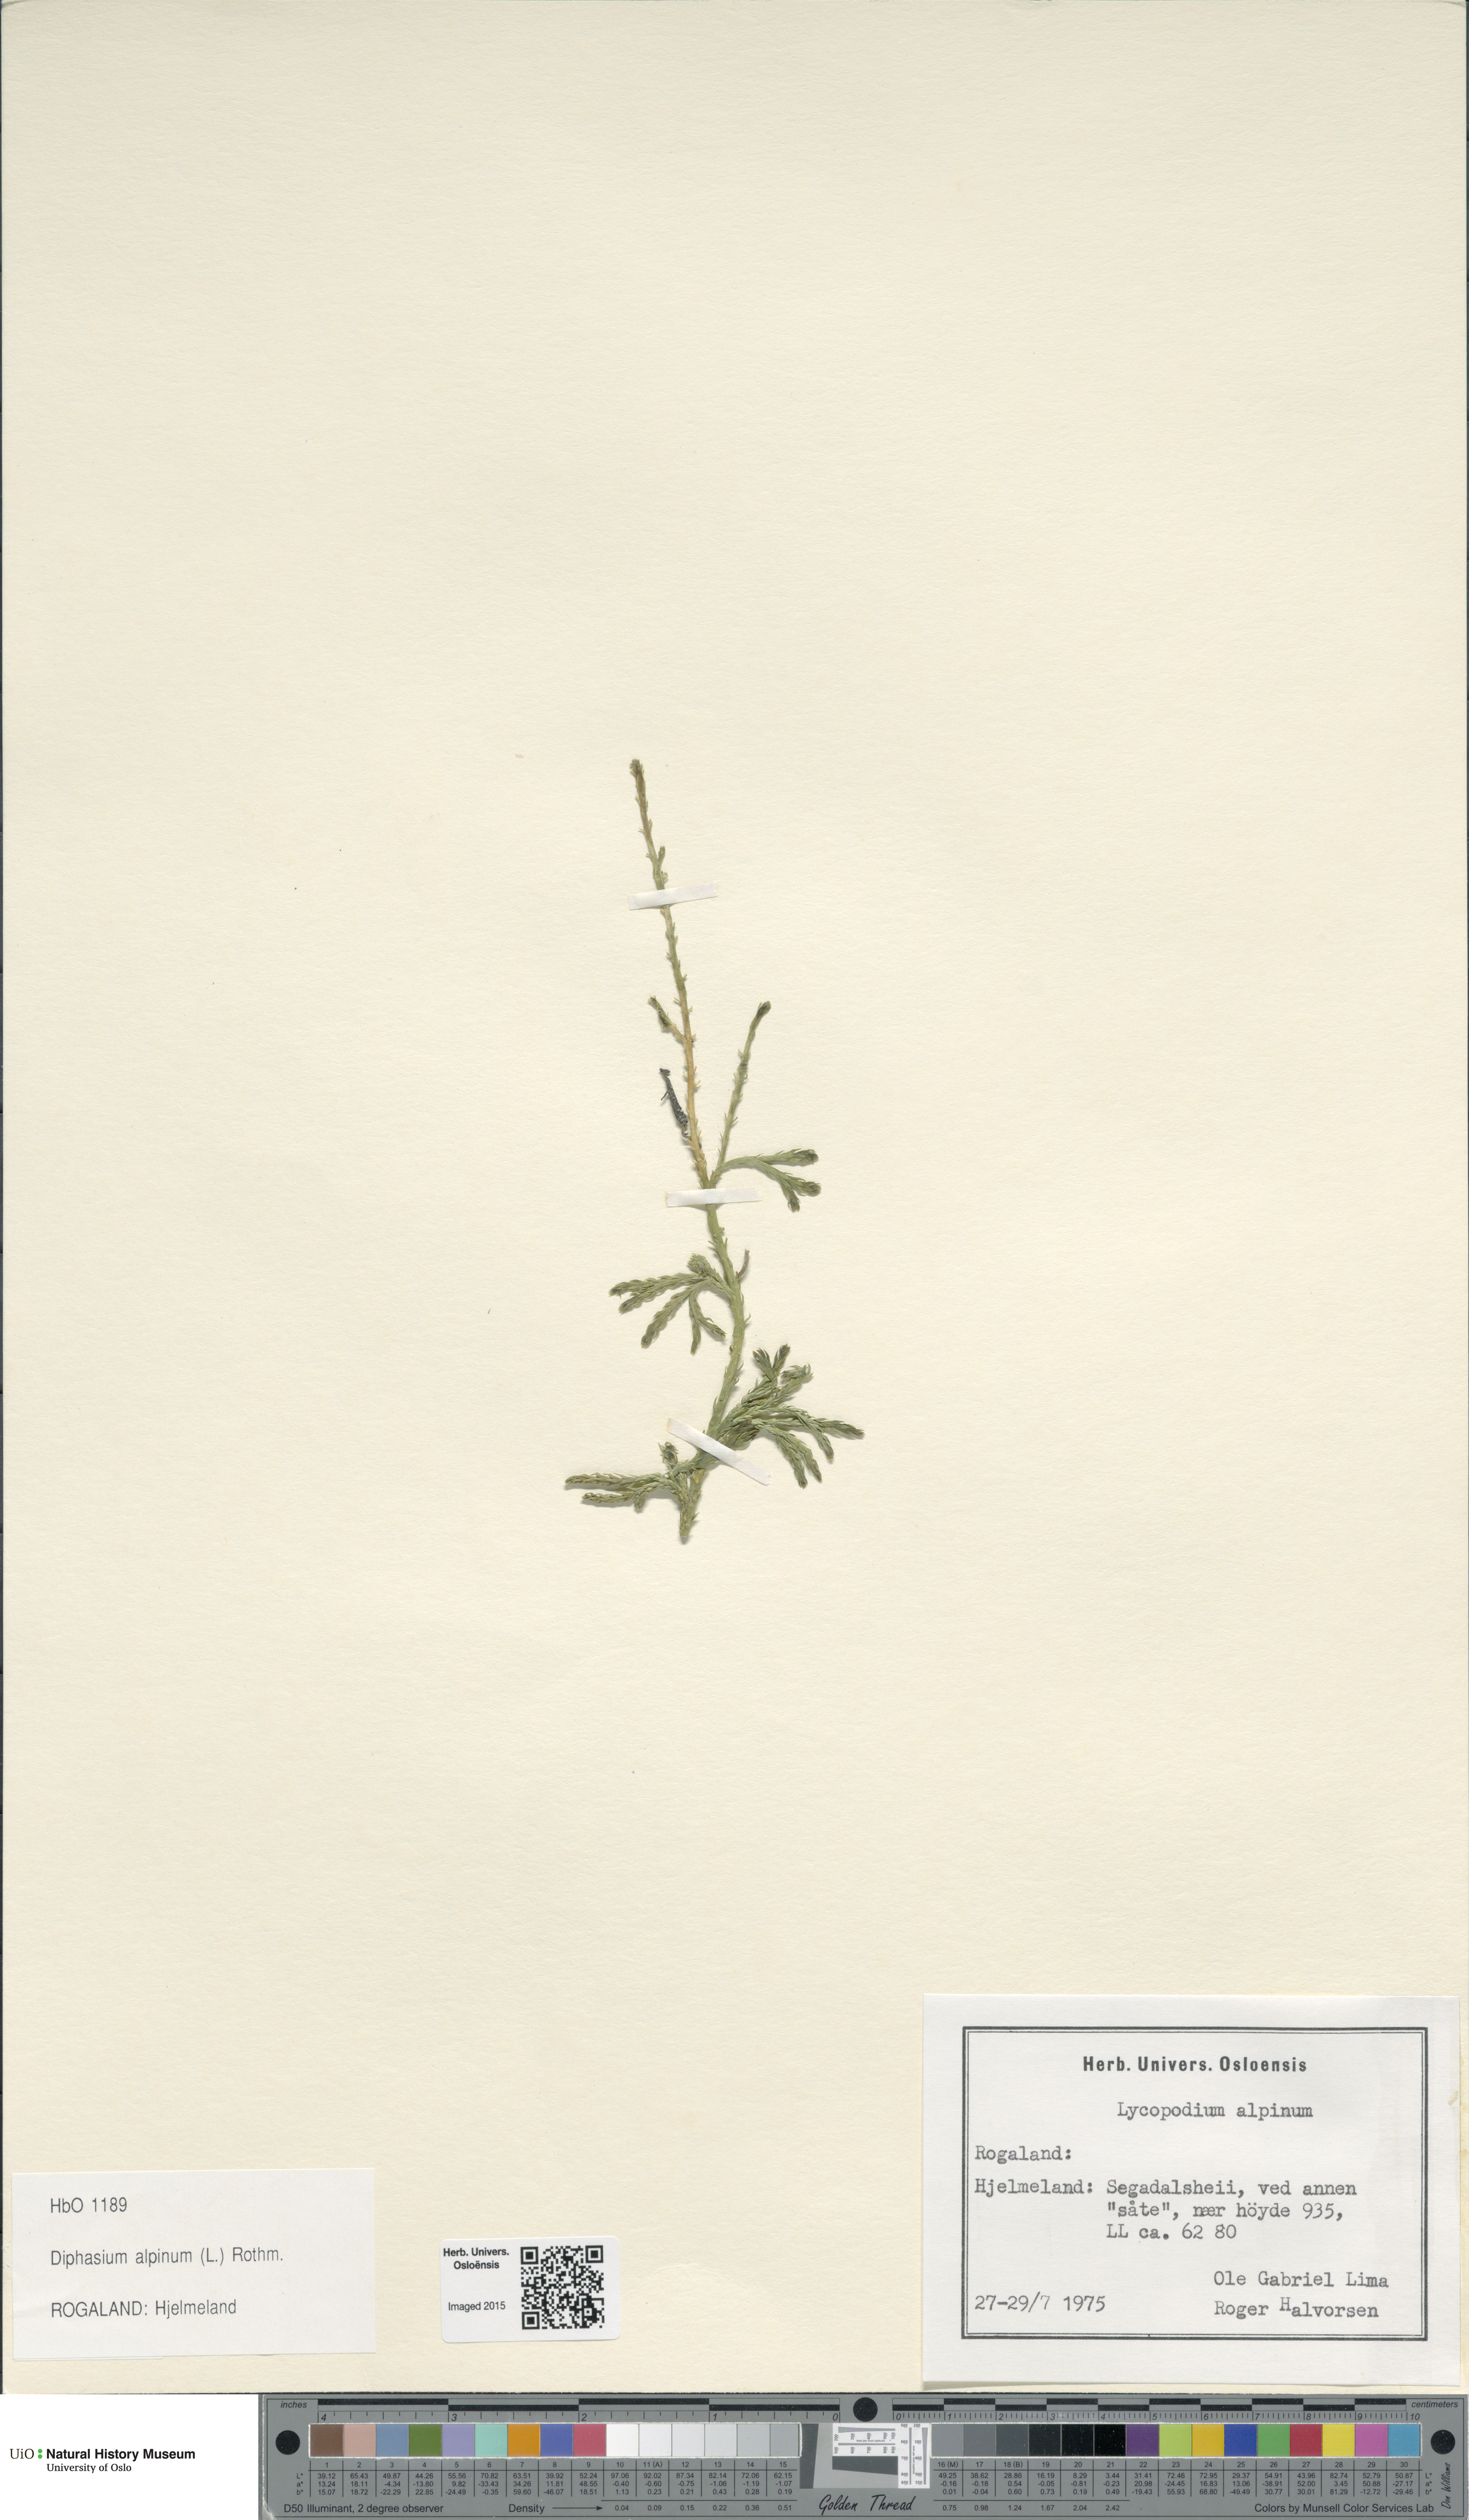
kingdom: Plantae
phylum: Tracheophyta
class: Lycopodiopsida
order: Lycopodiales
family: Lycopodiaceae
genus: Diphasiastrum
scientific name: Diphasiastrum alpinum
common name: Alpine clubmoss
